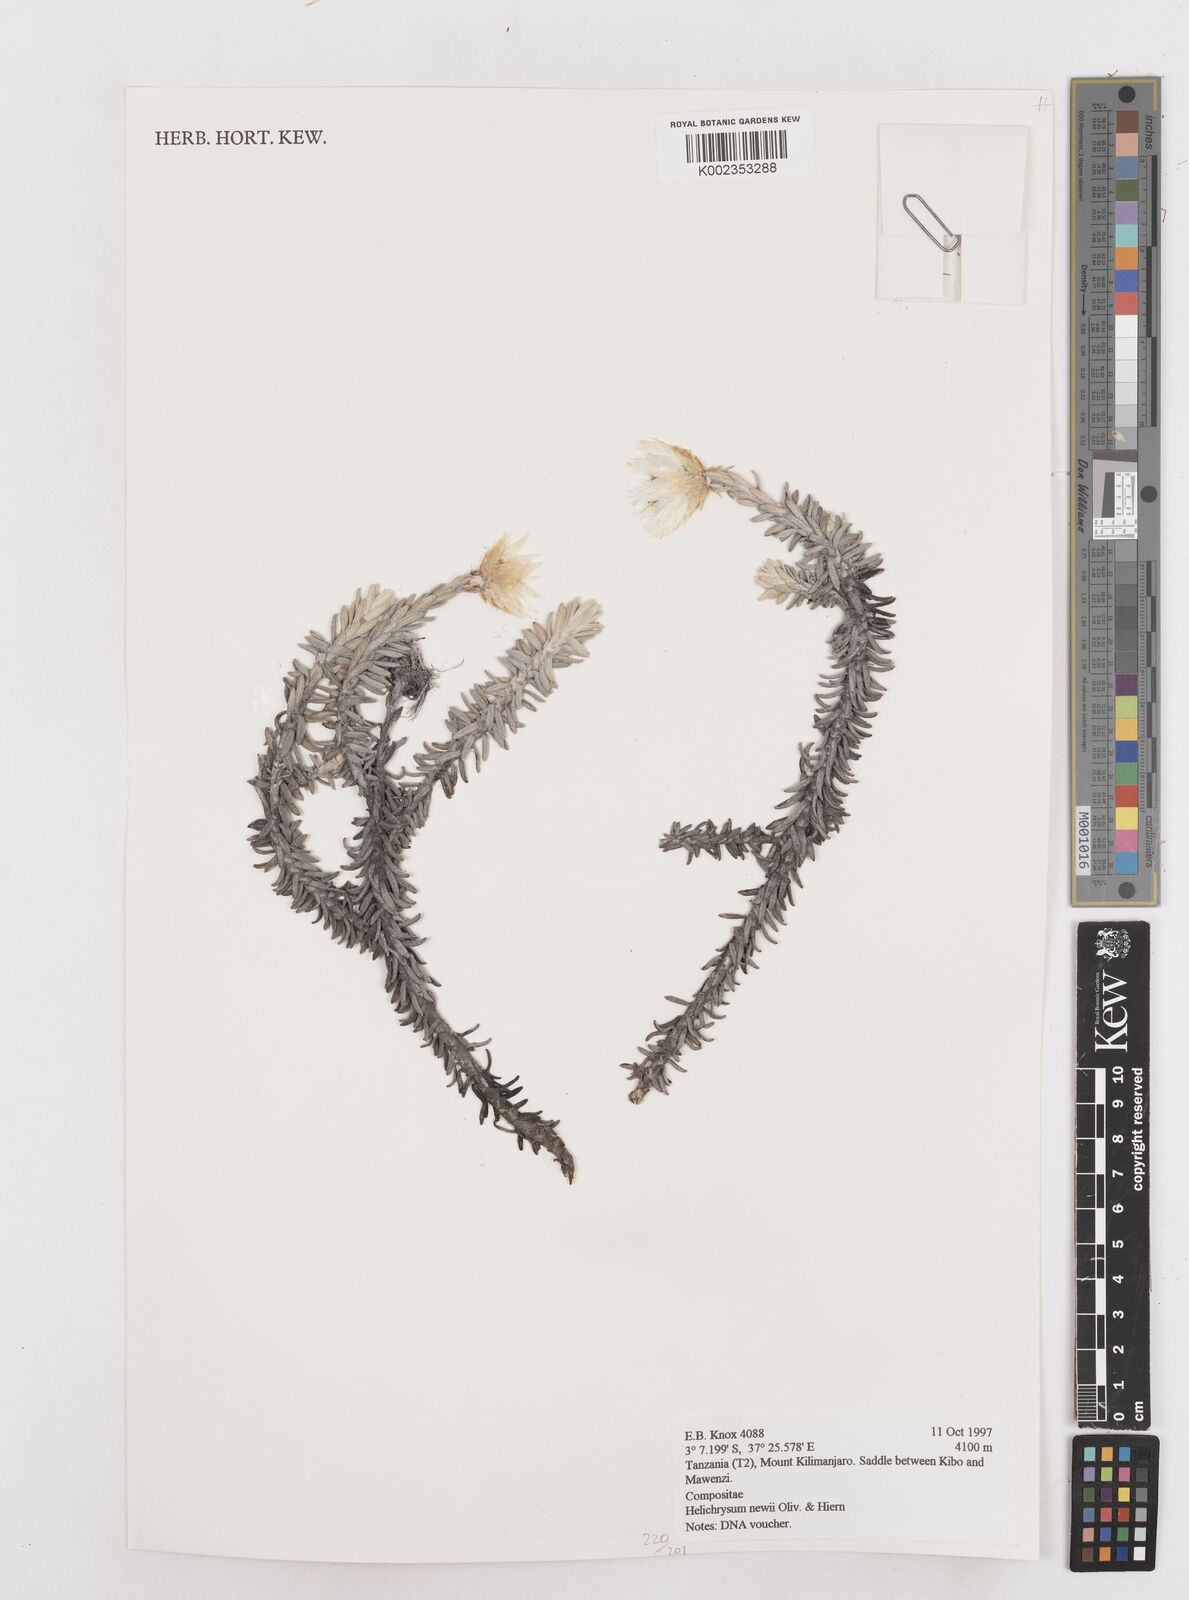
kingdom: Plantae
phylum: Tracheophyta
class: Magnoliopsida
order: Asterales
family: Asteraceae
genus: Helichrysum
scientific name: Helichrysum newii
